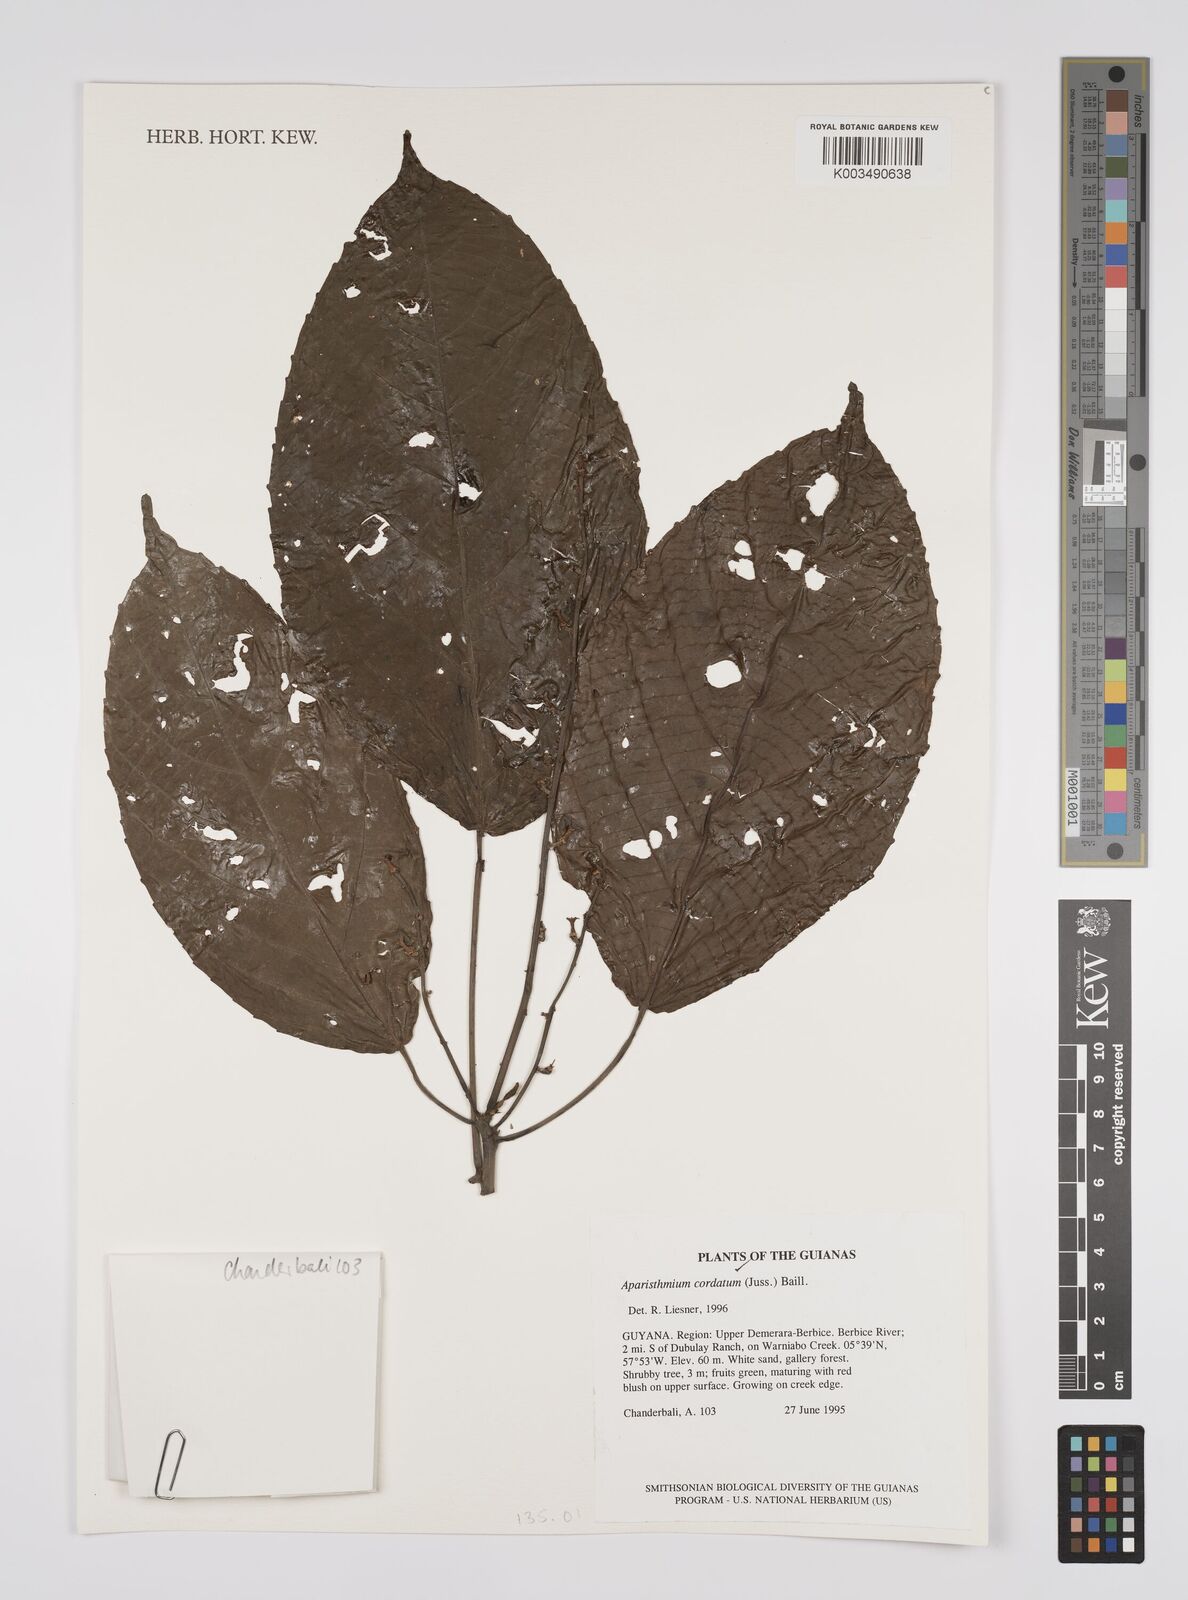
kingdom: Plantae
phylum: Tracheophyta
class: Magnoliopsida
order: Malpighiales
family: Euphorbiaceae
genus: Aparisthmium
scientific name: Aparisthmium cordatum
